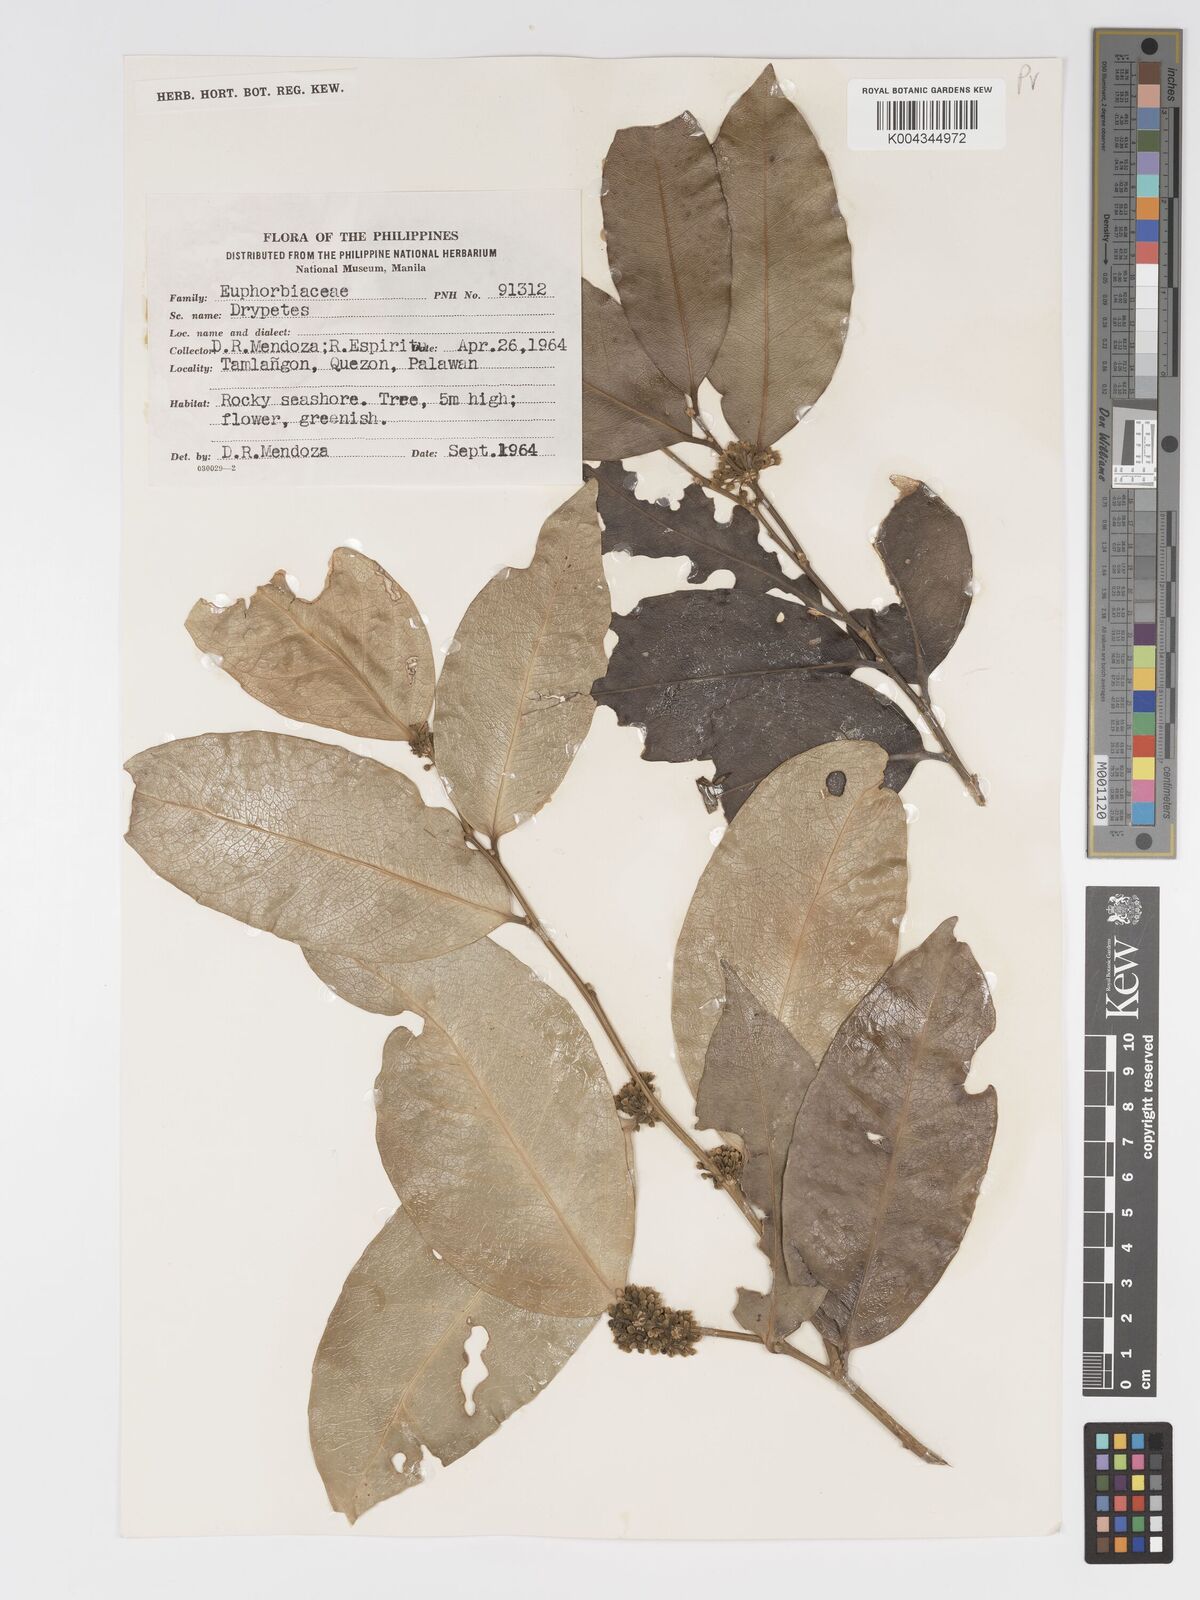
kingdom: Plantae
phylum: Tracheophyta
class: Magnoliopsida
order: Malpighiales
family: Putranjivaceae
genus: Drypetes
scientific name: Drypetes littoralis
